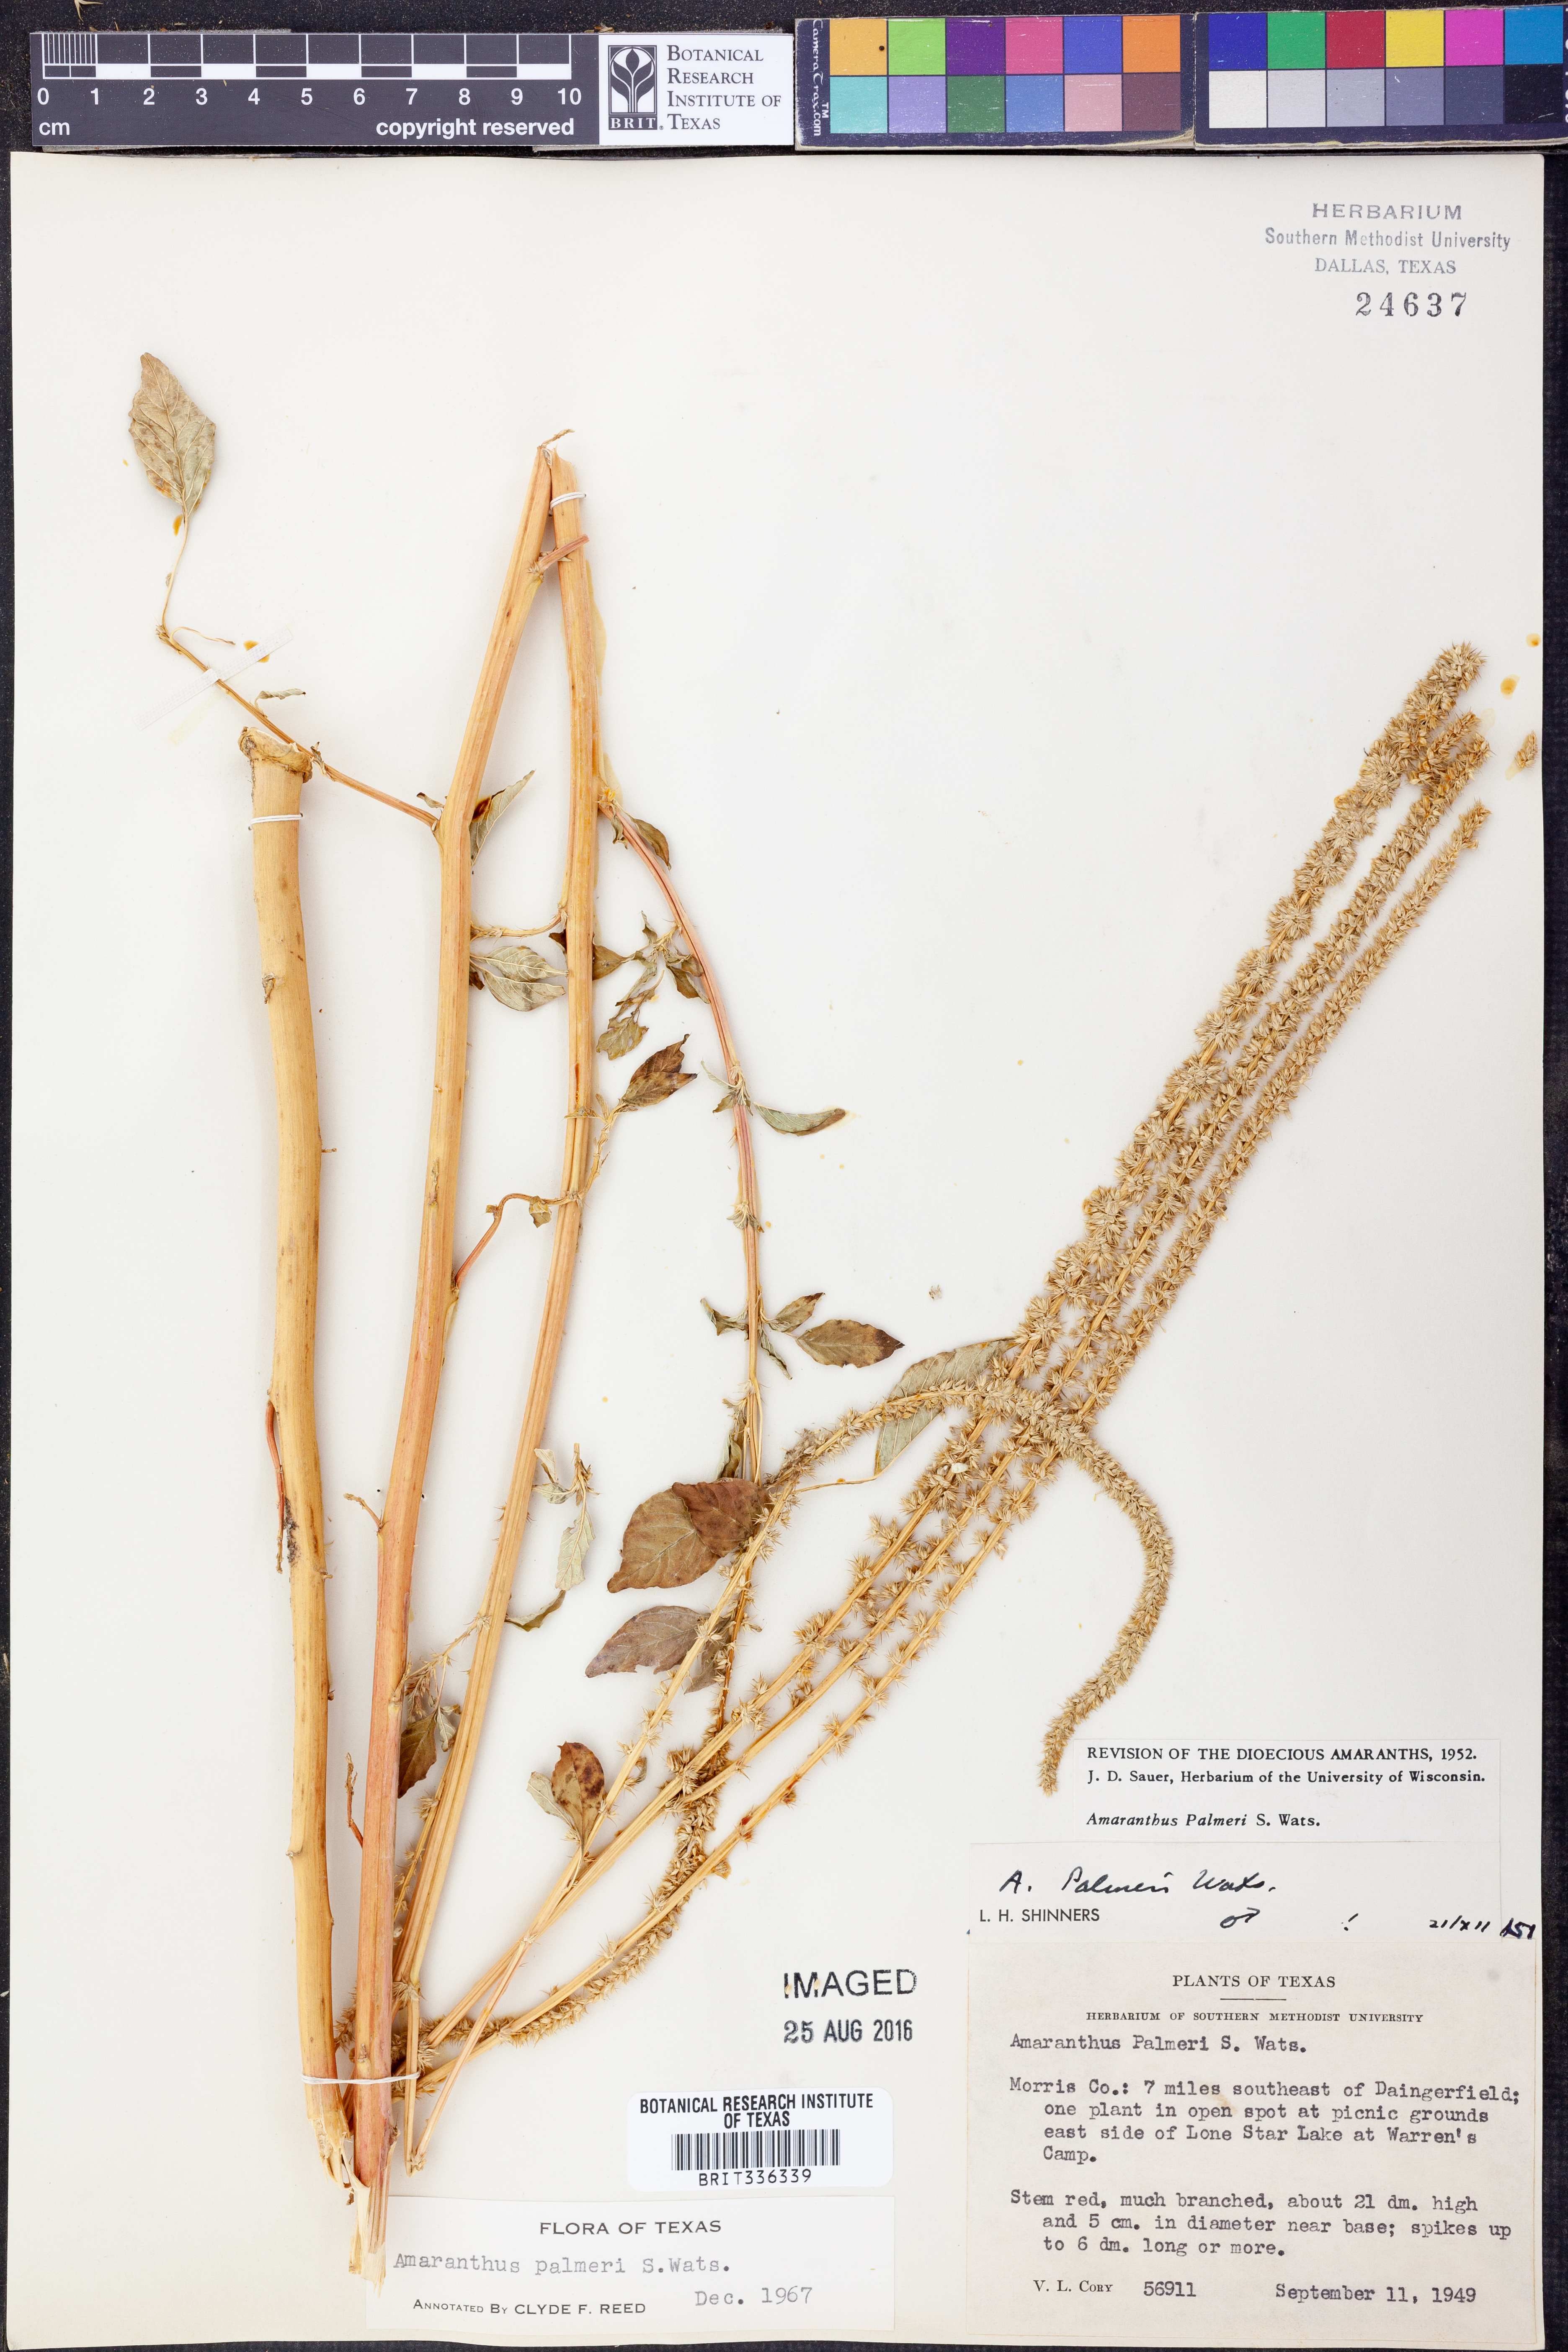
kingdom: Plantae
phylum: Tracheophyta
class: Magnoliopsida
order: Caryophyllales
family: Amaranthaceae
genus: Amaranthus
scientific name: Amaranthus palmeri
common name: Dioecious amaranth
